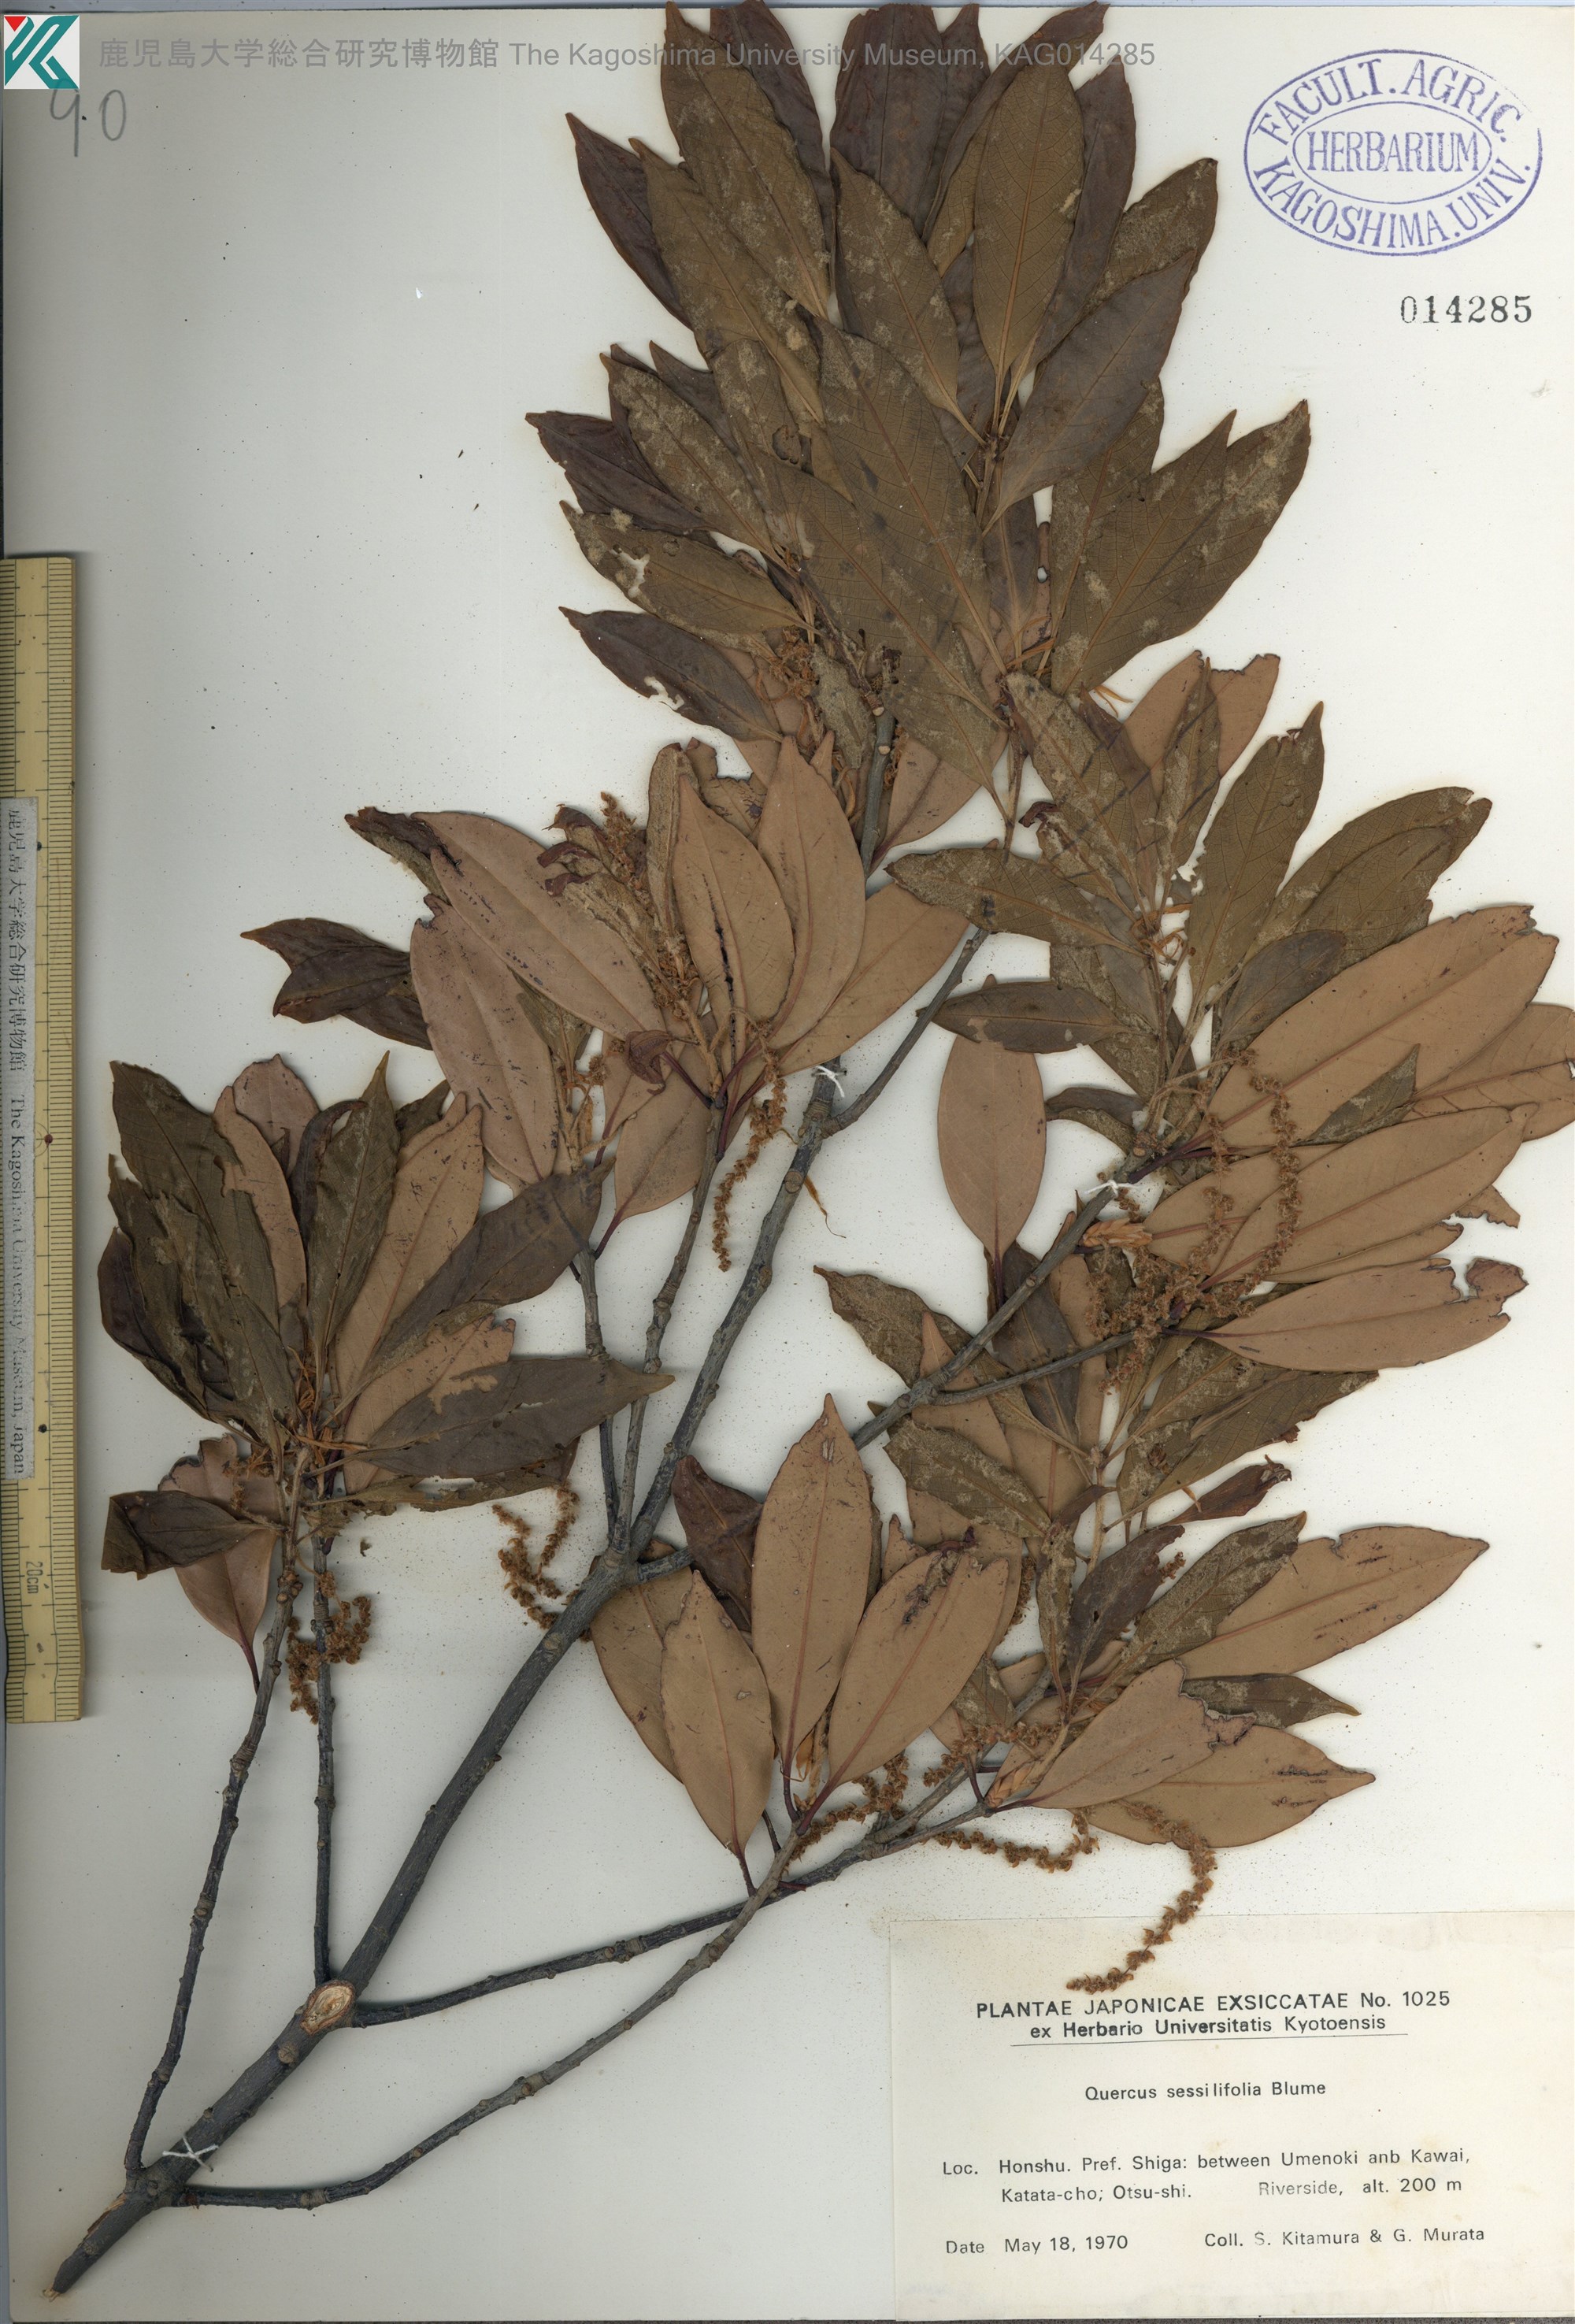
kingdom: Plantae
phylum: Tracheophyta
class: Magnoliopsida
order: Fagales
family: Fagaceae
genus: Quercus
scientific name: Quercus sessilifolia
